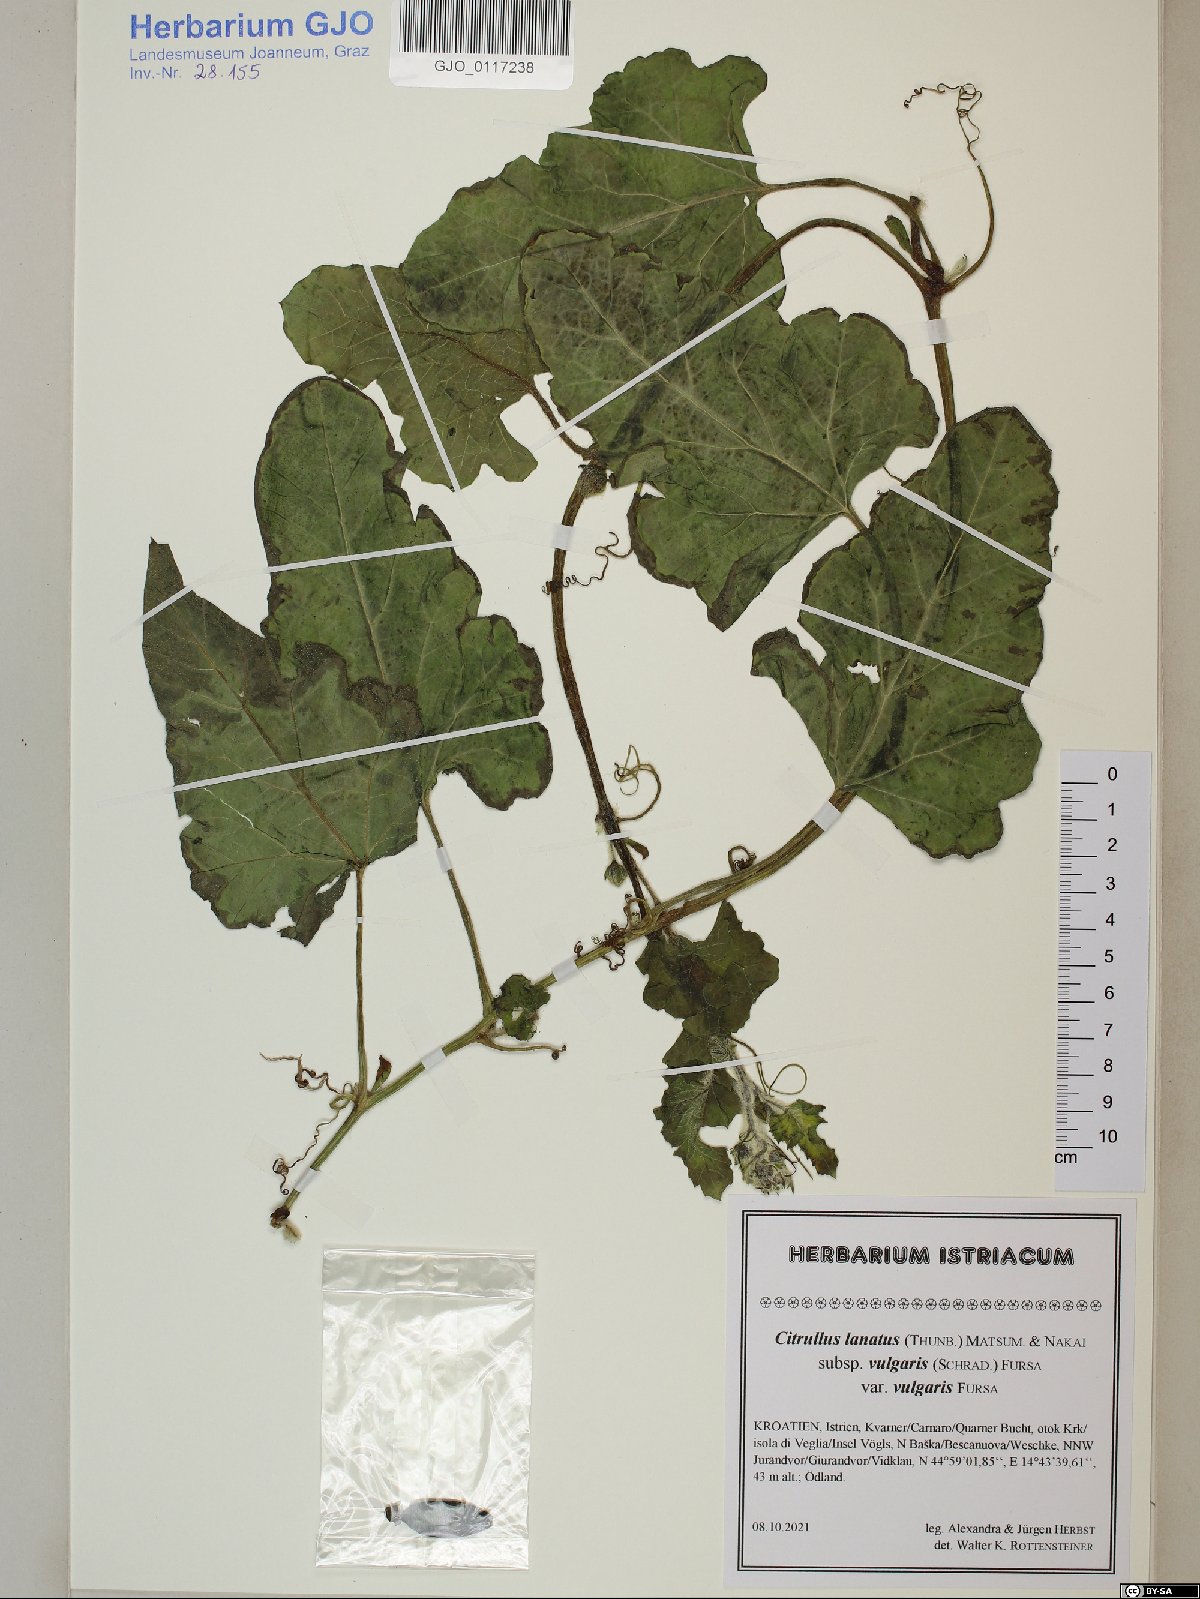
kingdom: Plantae
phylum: Tracheophyta
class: Magnoliopsida
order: Cucurbitales
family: Cucurbitaceae
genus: Citrullus
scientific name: Citrullus lanatus
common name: Watermelon
